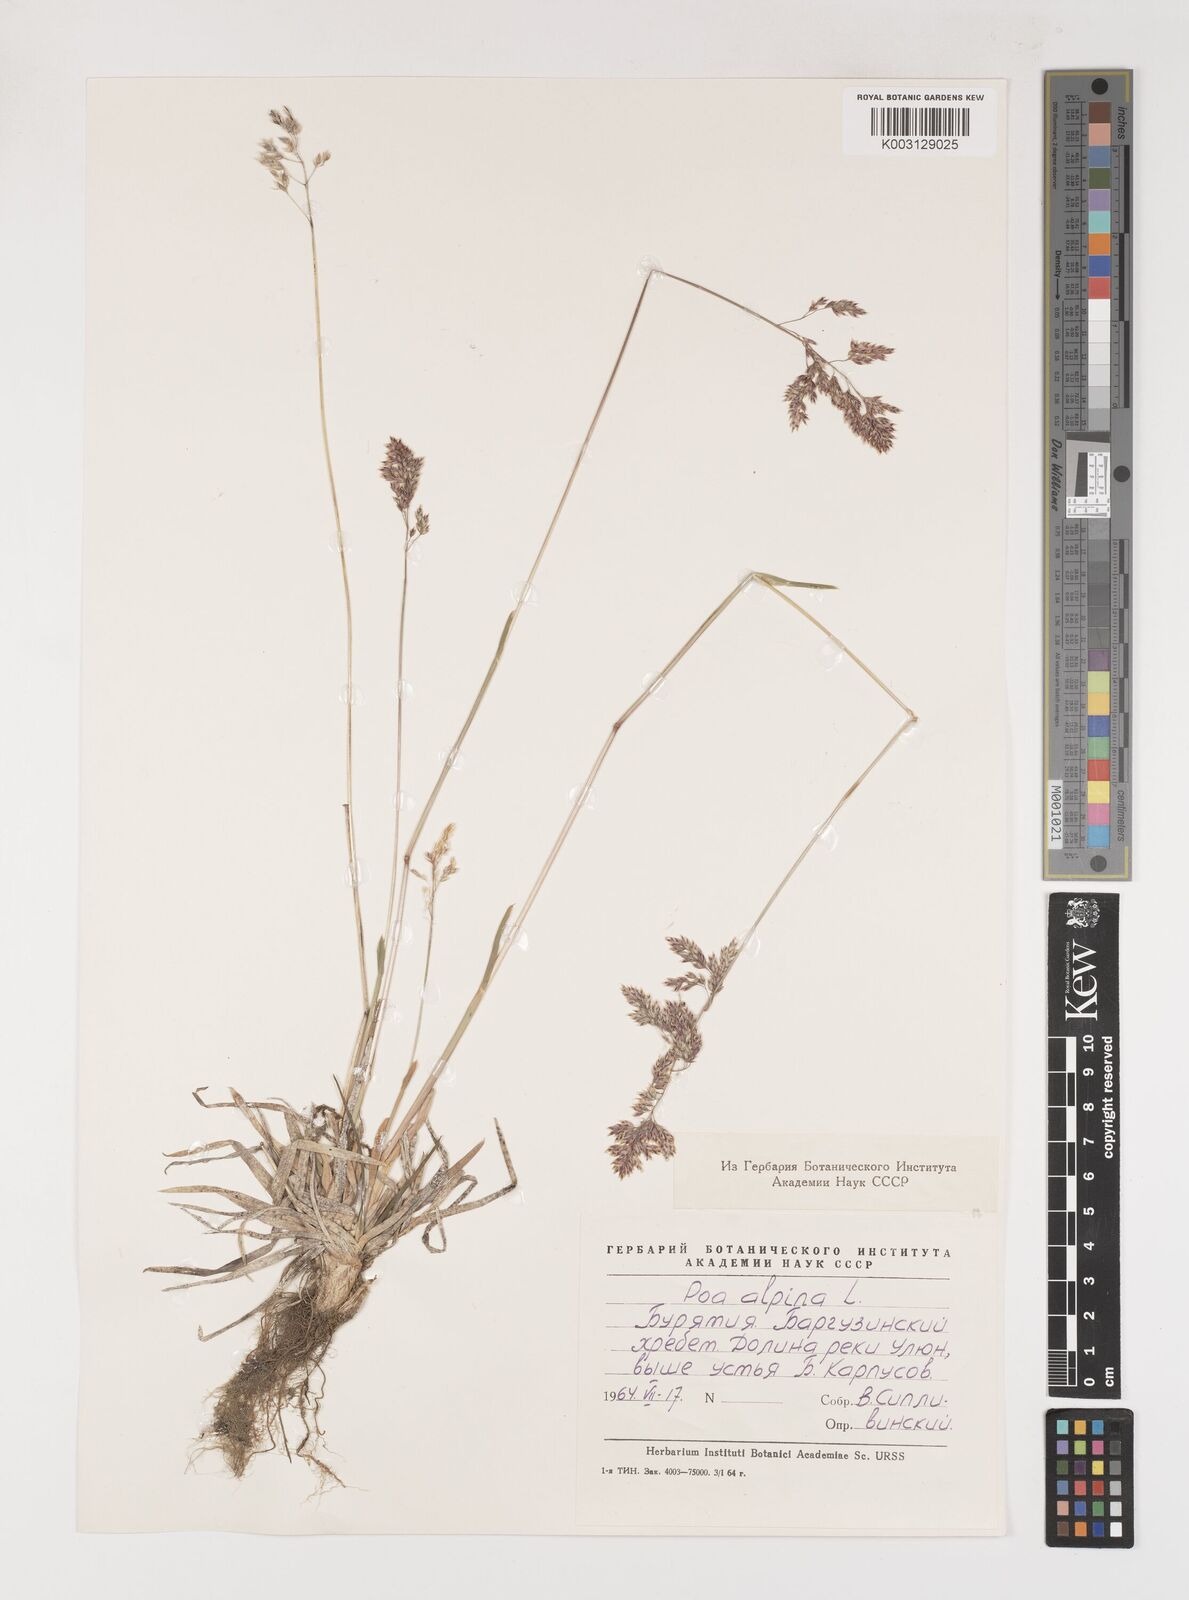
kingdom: Plantae
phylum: Tracheophyta
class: Liliopsida
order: Poales
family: Poaceae
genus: Poa
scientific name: Poa alpina
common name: Alpine bluegrass
